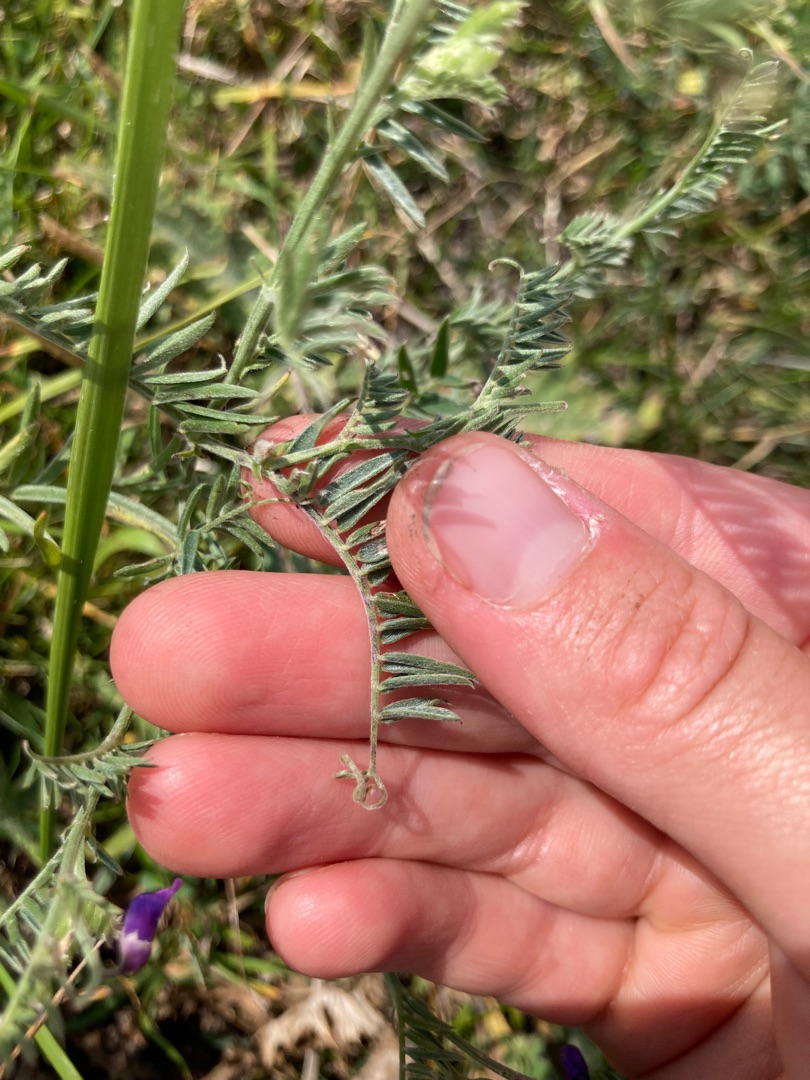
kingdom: Plantae
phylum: Tracheophyta
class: Magnoliopsida
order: Fabales
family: Fabaceae
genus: Vicia
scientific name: Vicia cracca
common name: Muse-vikke
